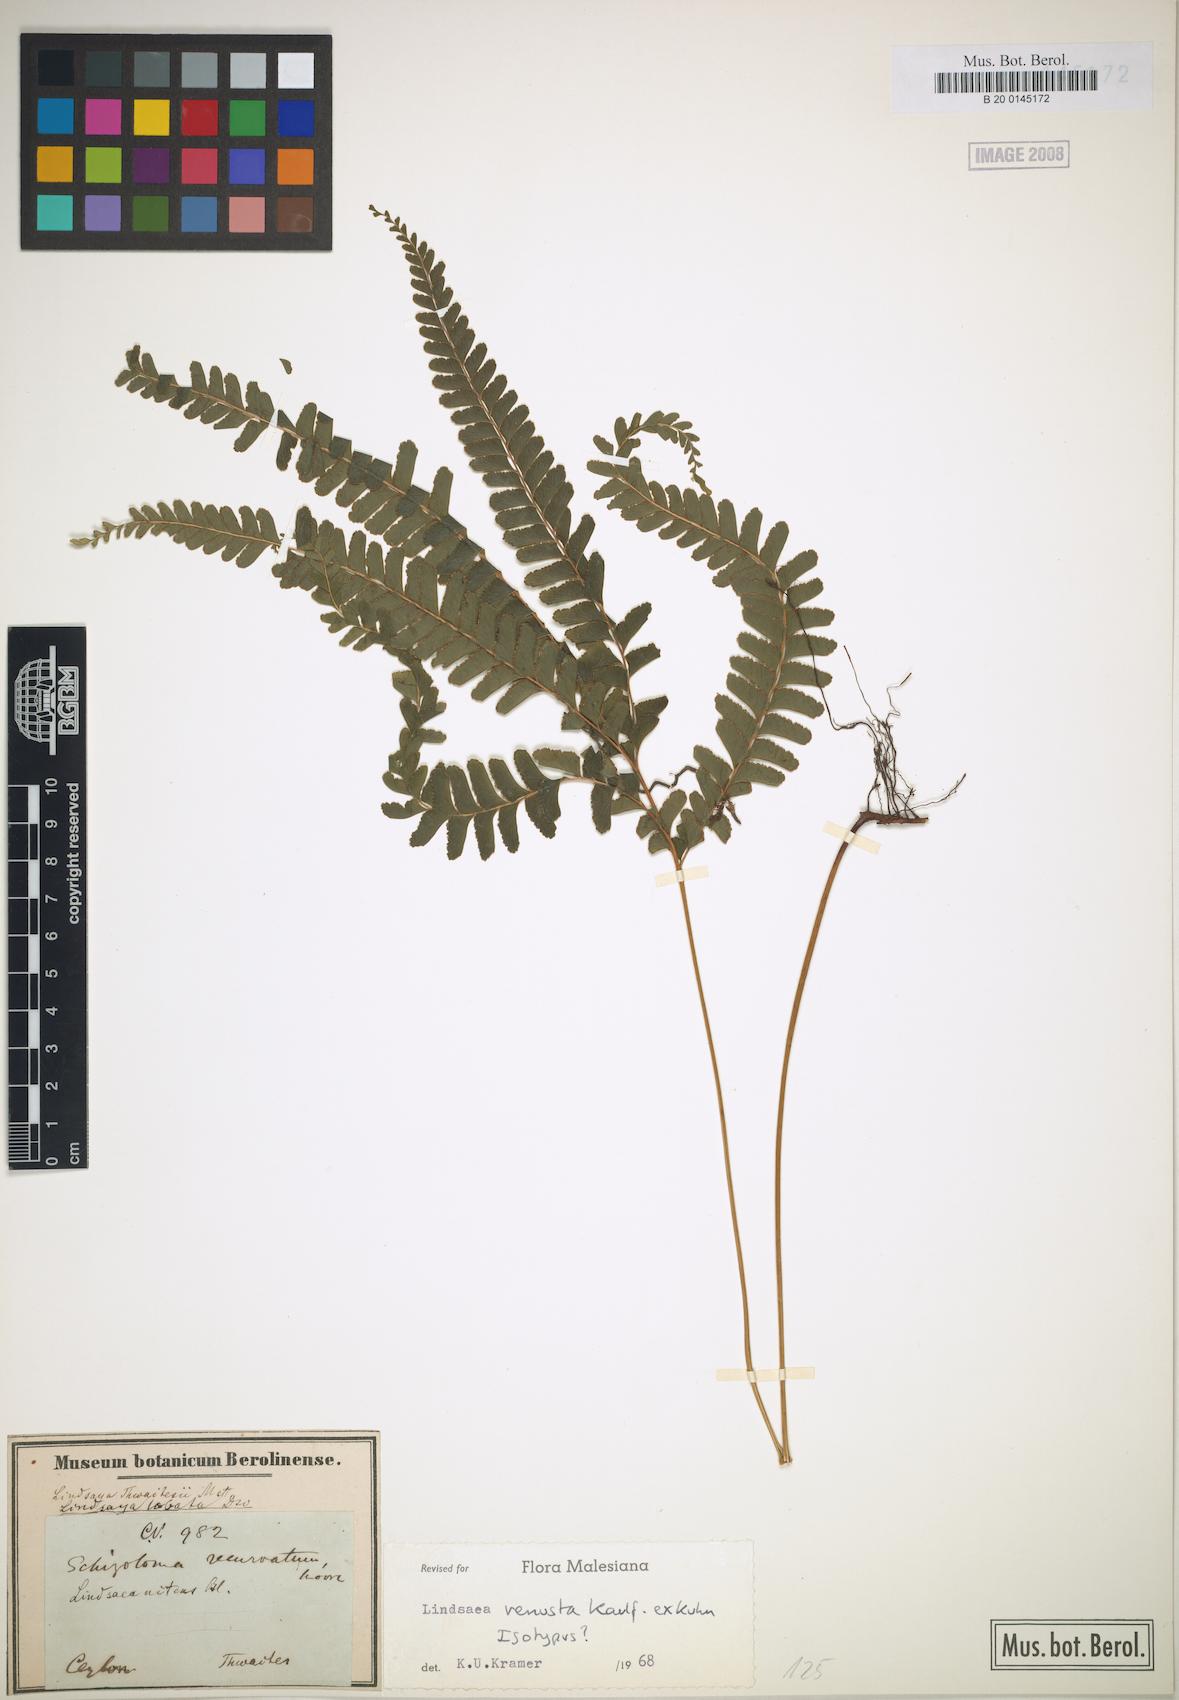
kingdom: Plantae
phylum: Tracheophyta
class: Polypodiopsida
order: Polypodiales
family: Lindsaeaceae
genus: Lindsaea
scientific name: Lindsaea venusta
